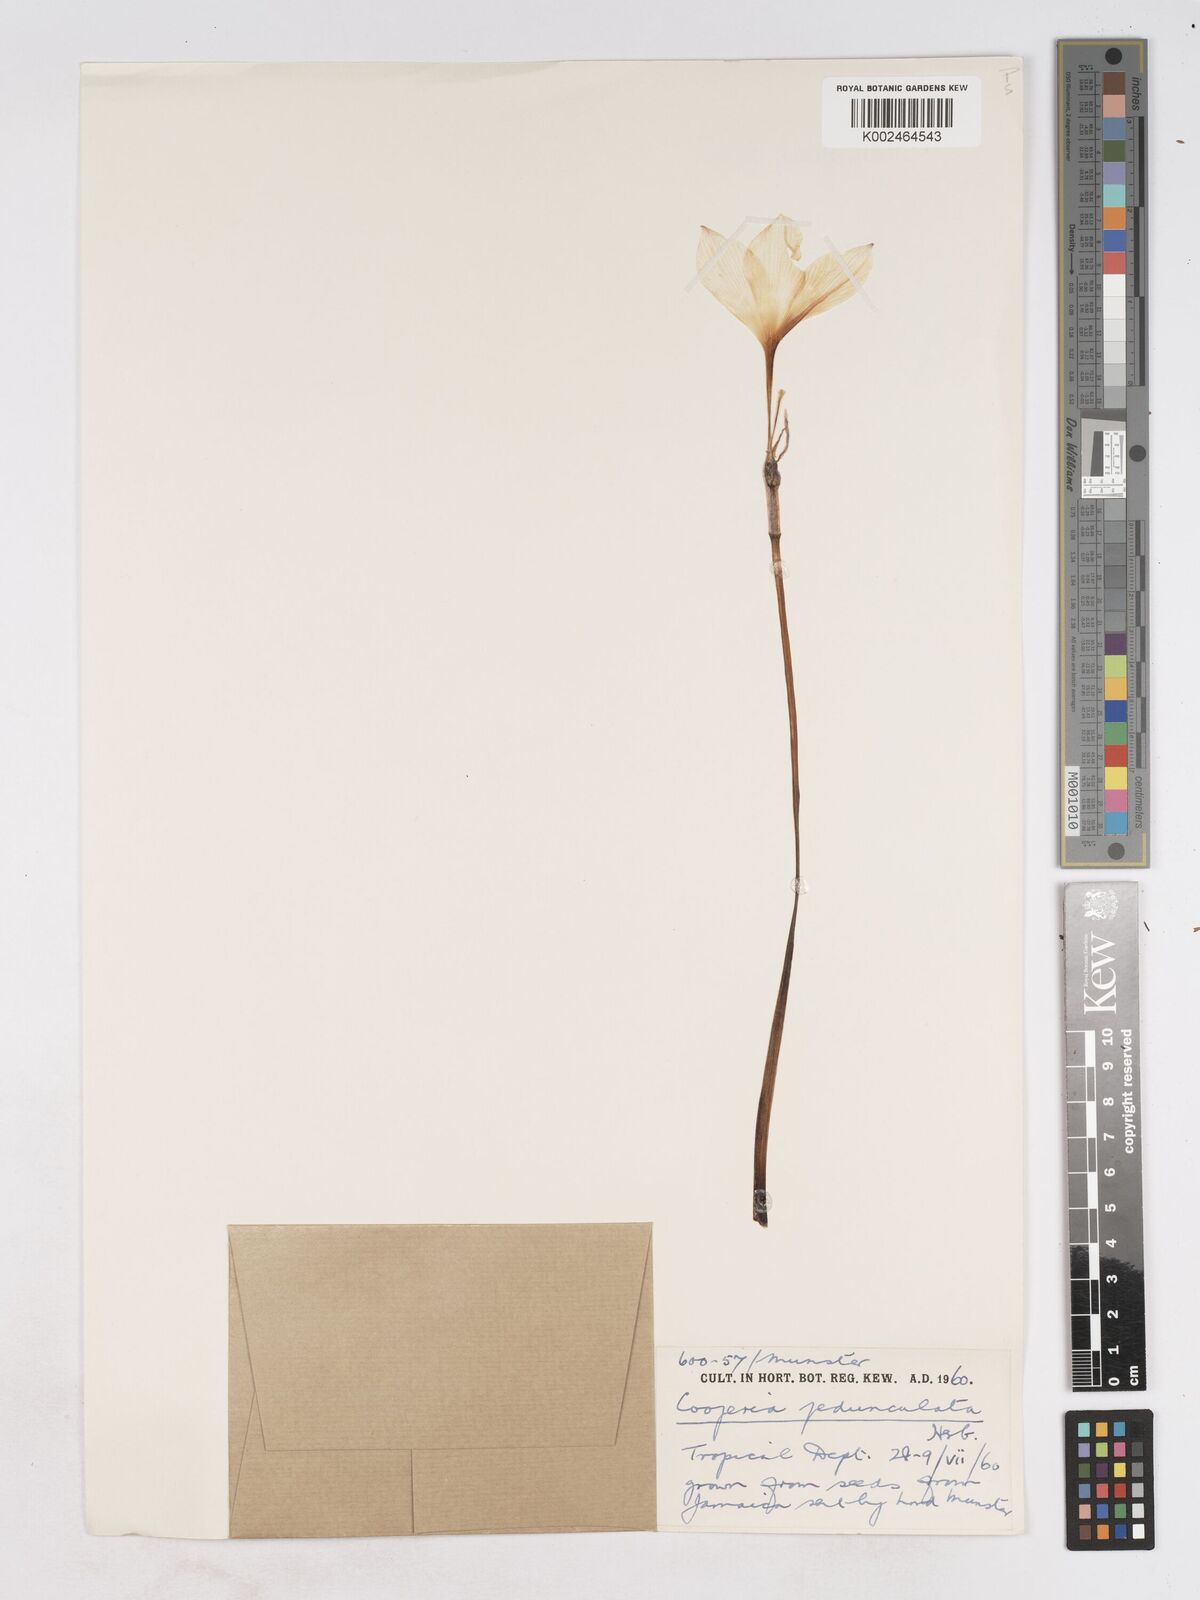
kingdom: Plantae
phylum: Tracheophyta
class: Liliopsida
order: Asparagales
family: Amaryllidaceae
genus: Zephyranthes
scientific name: Zephyranthes drummondii
